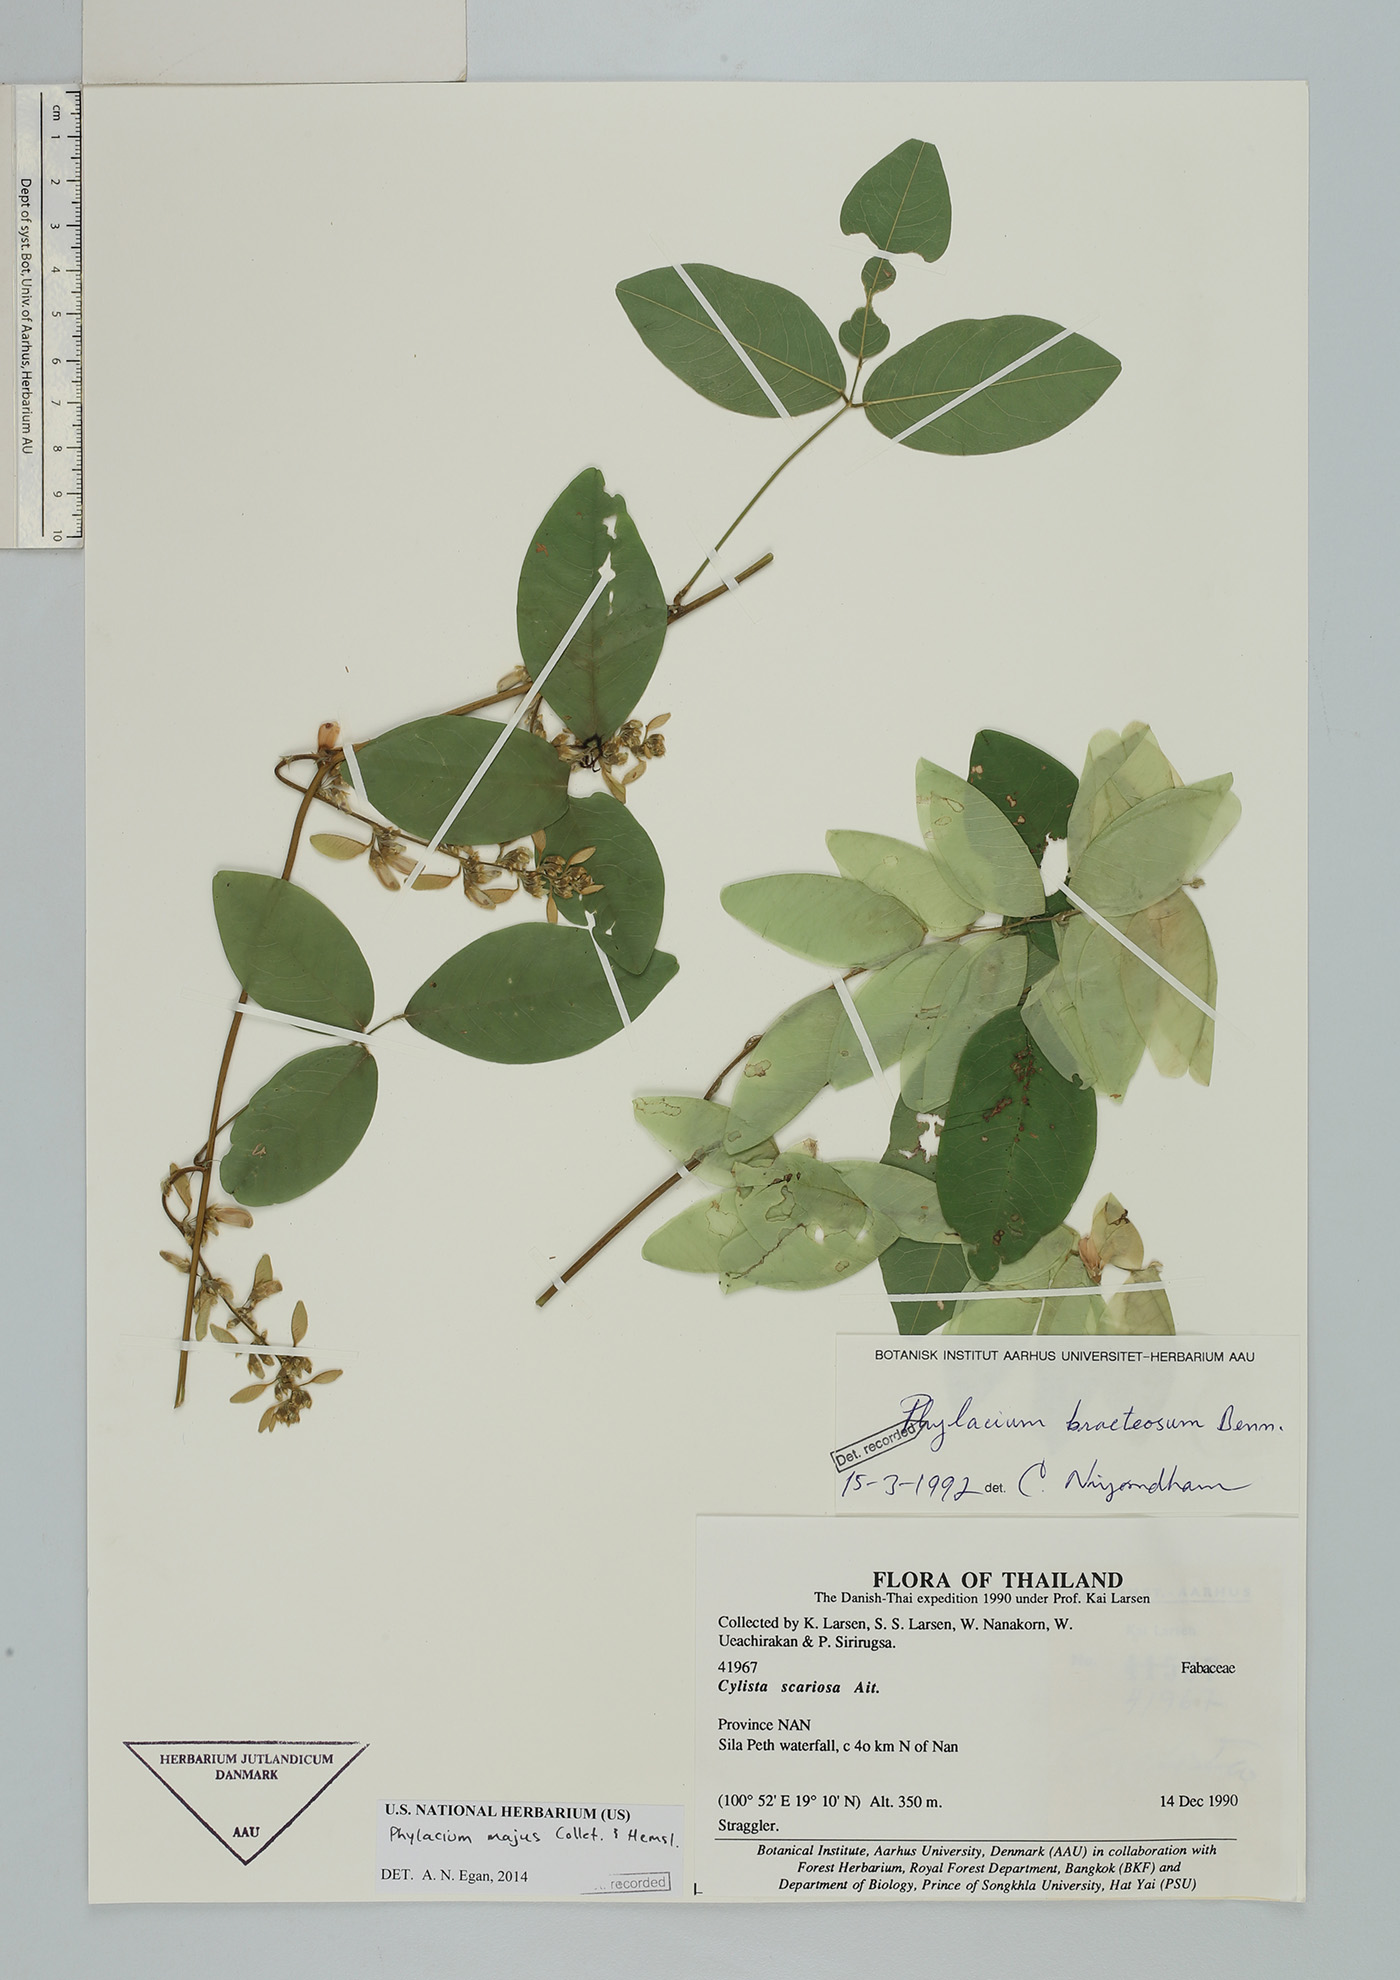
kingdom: Plantae
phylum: Tracheophyta
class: Magnoliopsida
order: Fabales
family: Fabaceae
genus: Phylacium
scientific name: Phylacium majus
